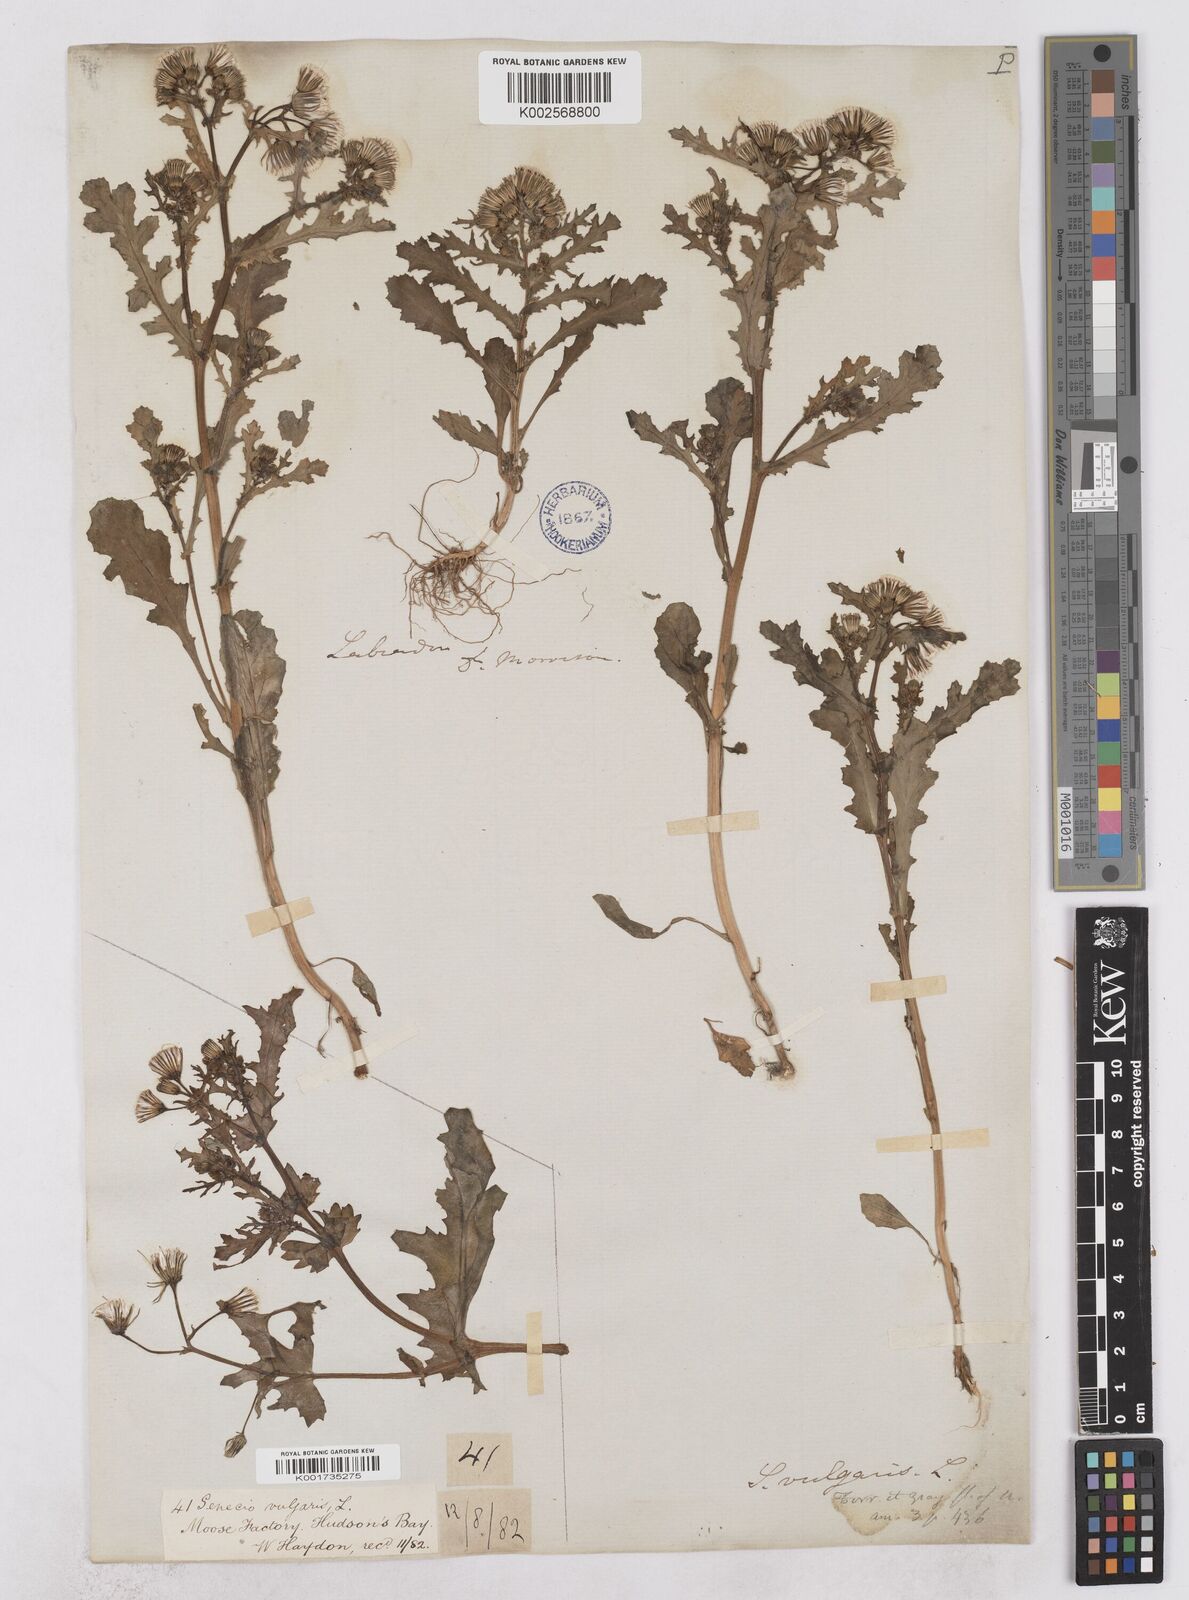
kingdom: Plantae
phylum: Tracheophyta
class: Magnoliopsida
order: Asterales
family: Asteraceae
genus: Senecio
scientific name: Senecio vulgaris
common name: Old-man-in-the-spring
